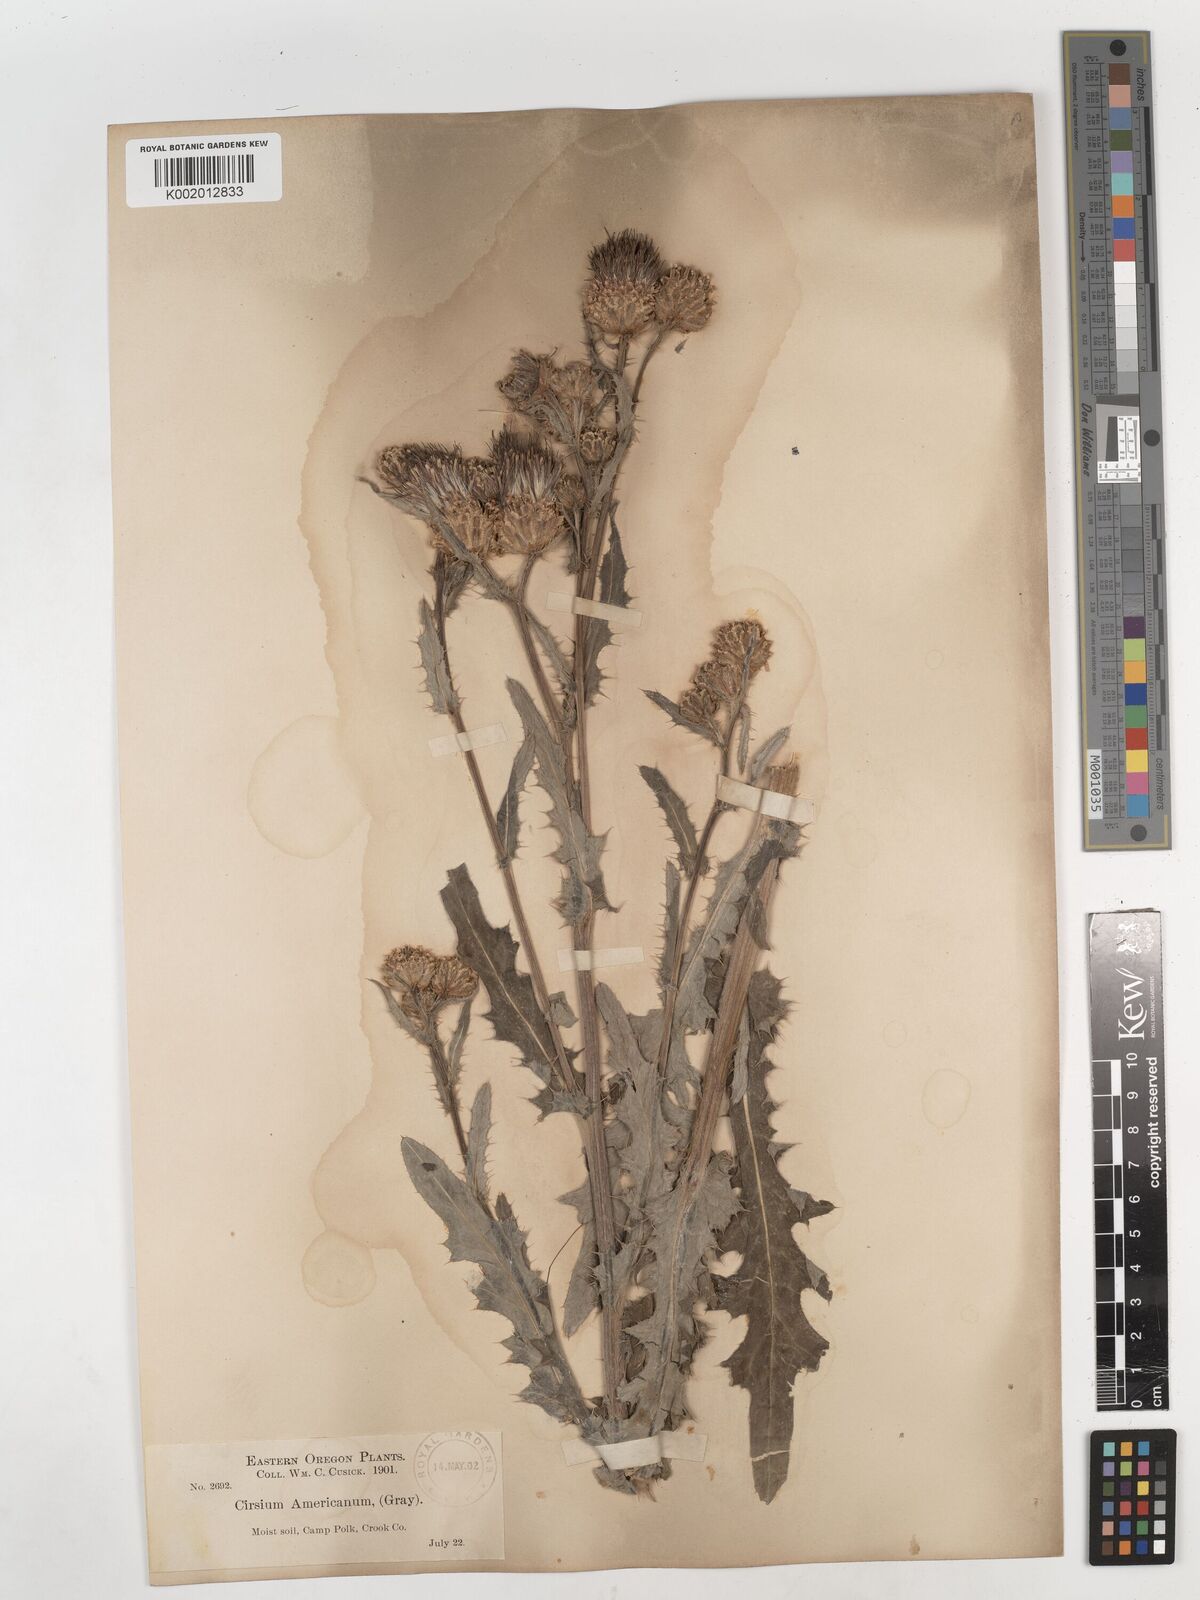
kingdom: Plantae
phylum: Tracheophyta
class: Magnoliopsida
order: Asterales
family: Asteraceae
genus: Cirsium
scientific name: Cirsium tioganum
